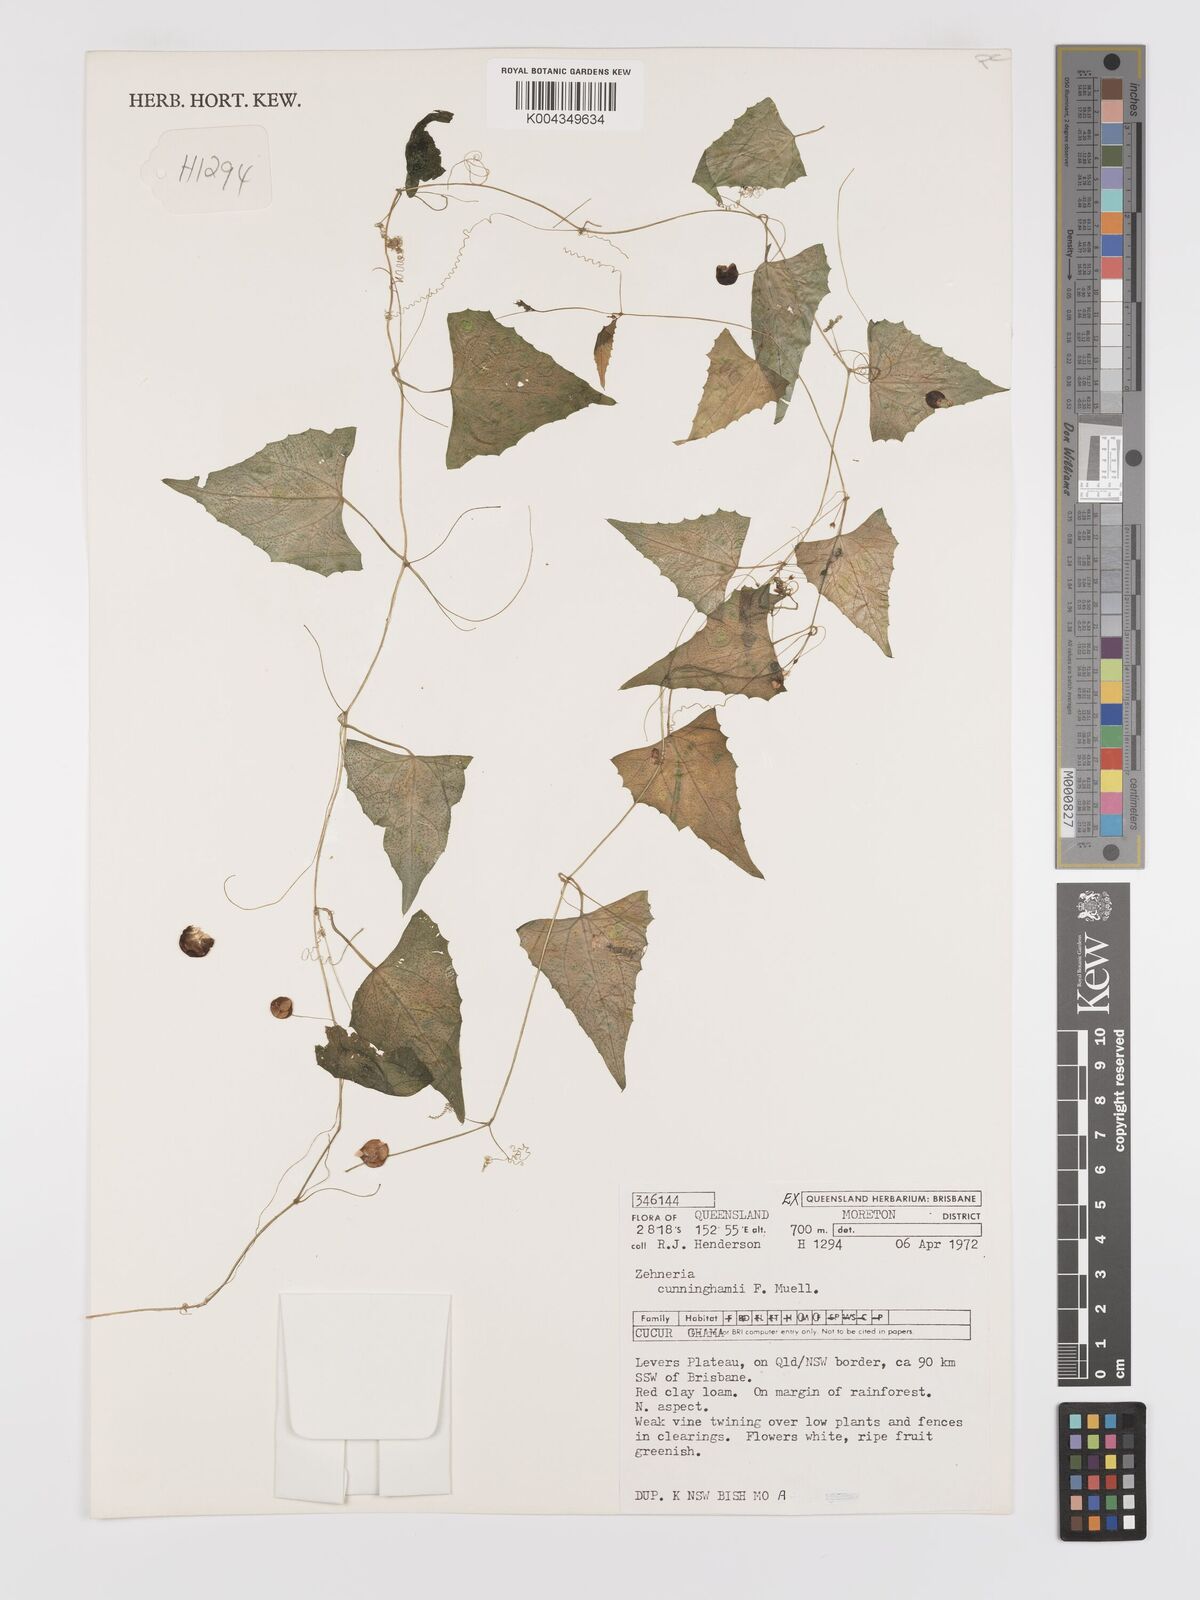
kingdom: Plantae
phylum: Tracheophyta
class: Magnoliopsida
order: Cucurbitales
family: Cucurbitaceae
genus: Zehneria
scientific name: Zehneria cunninghamii
